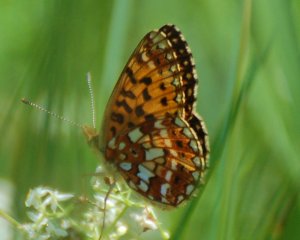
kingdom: Animalia
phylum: Arthropoda
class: Insecta
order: Lepidoptera
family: Nymphalidae
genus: Boloria
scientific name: Boloria selene
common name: Silver-bordered Fritillary
